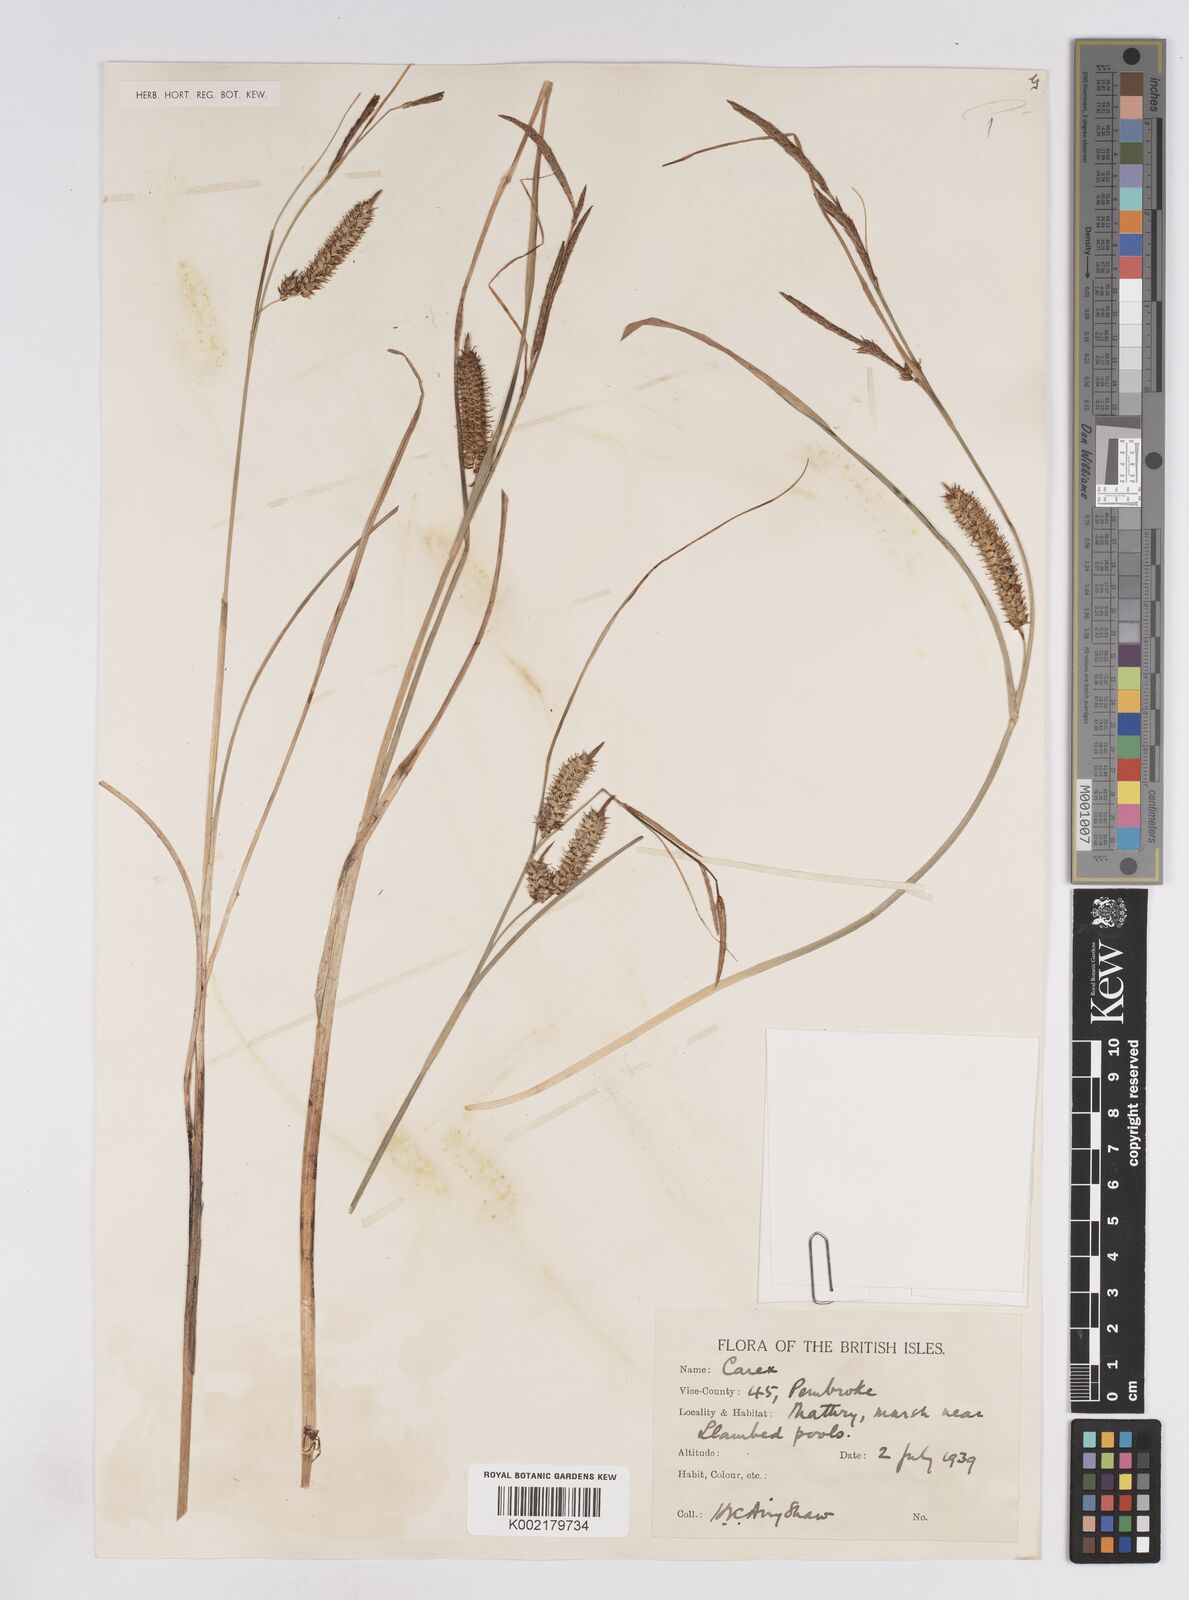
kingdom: Plantae
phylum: Tracheophyta
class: Liliopsida
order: Poales
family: Cyperaceae
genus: Carex
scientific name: Carex rostrata
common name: Bottle sedge
